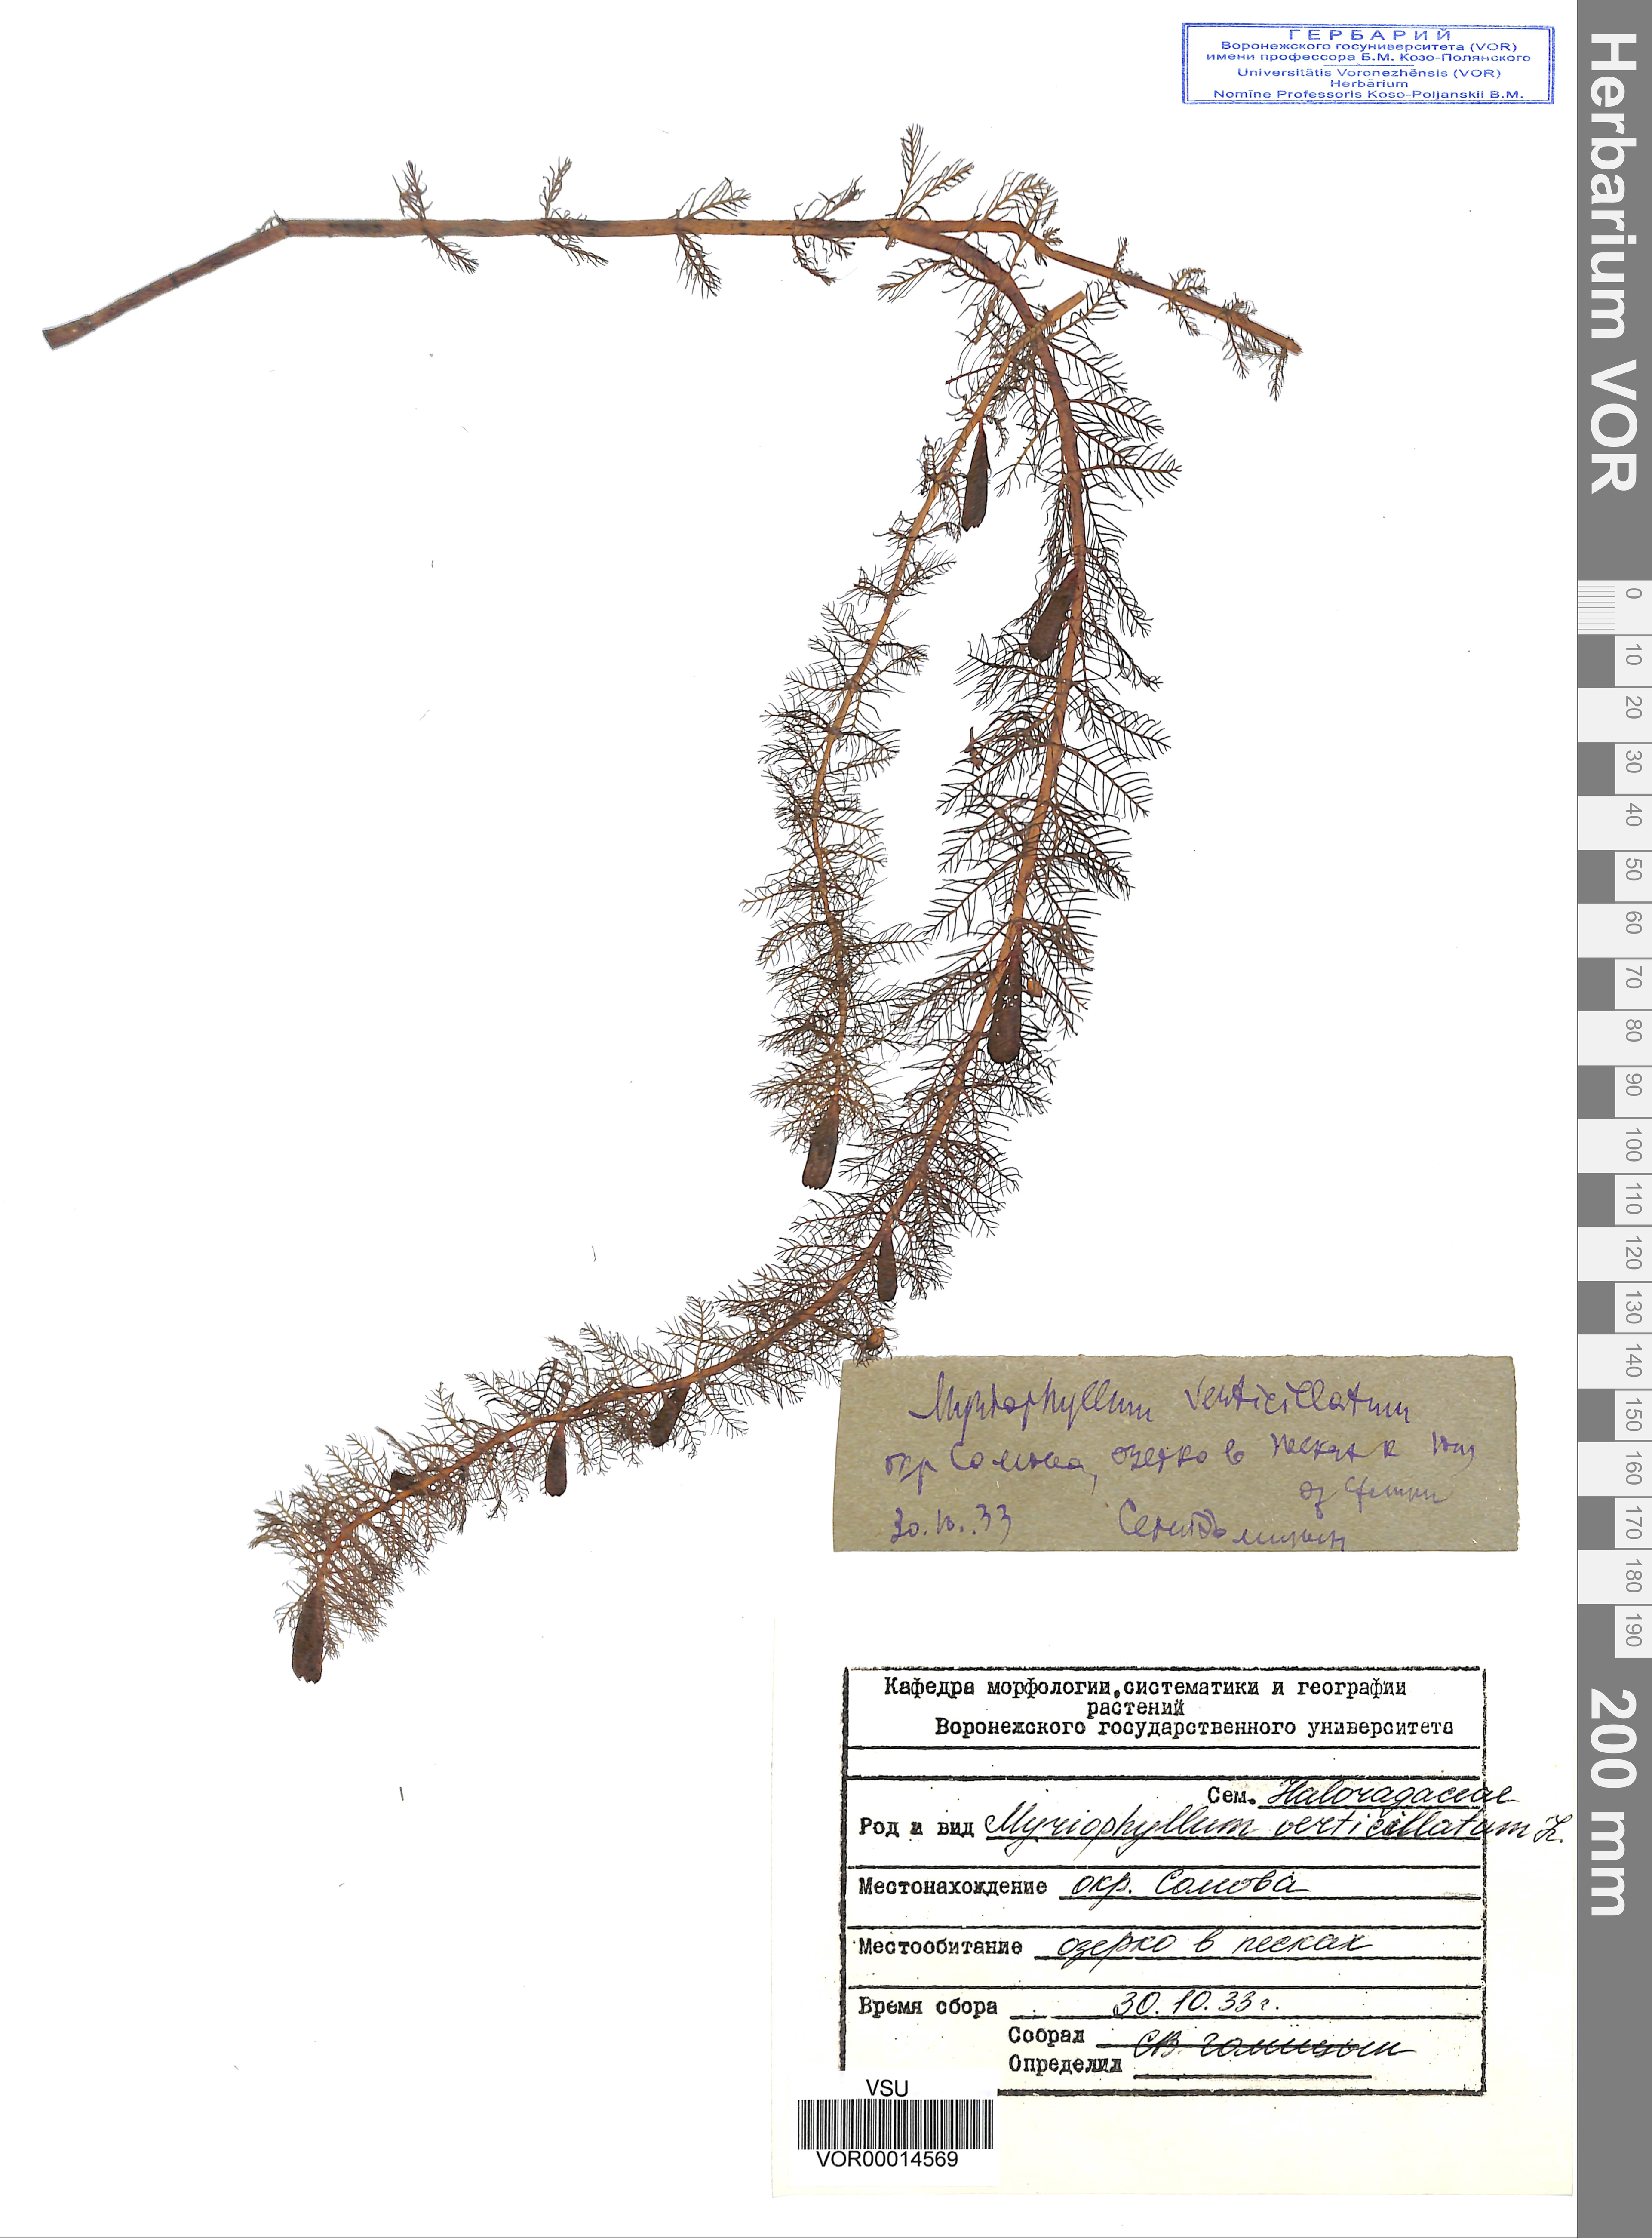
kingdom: Plantae
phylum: Tracheophyta
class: Magnoliopsida
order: Saxifragales
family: Haloragaceae
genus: Myriophyllum
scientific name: Myriophyllum verticillatum
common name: Whorled water-milfoil
